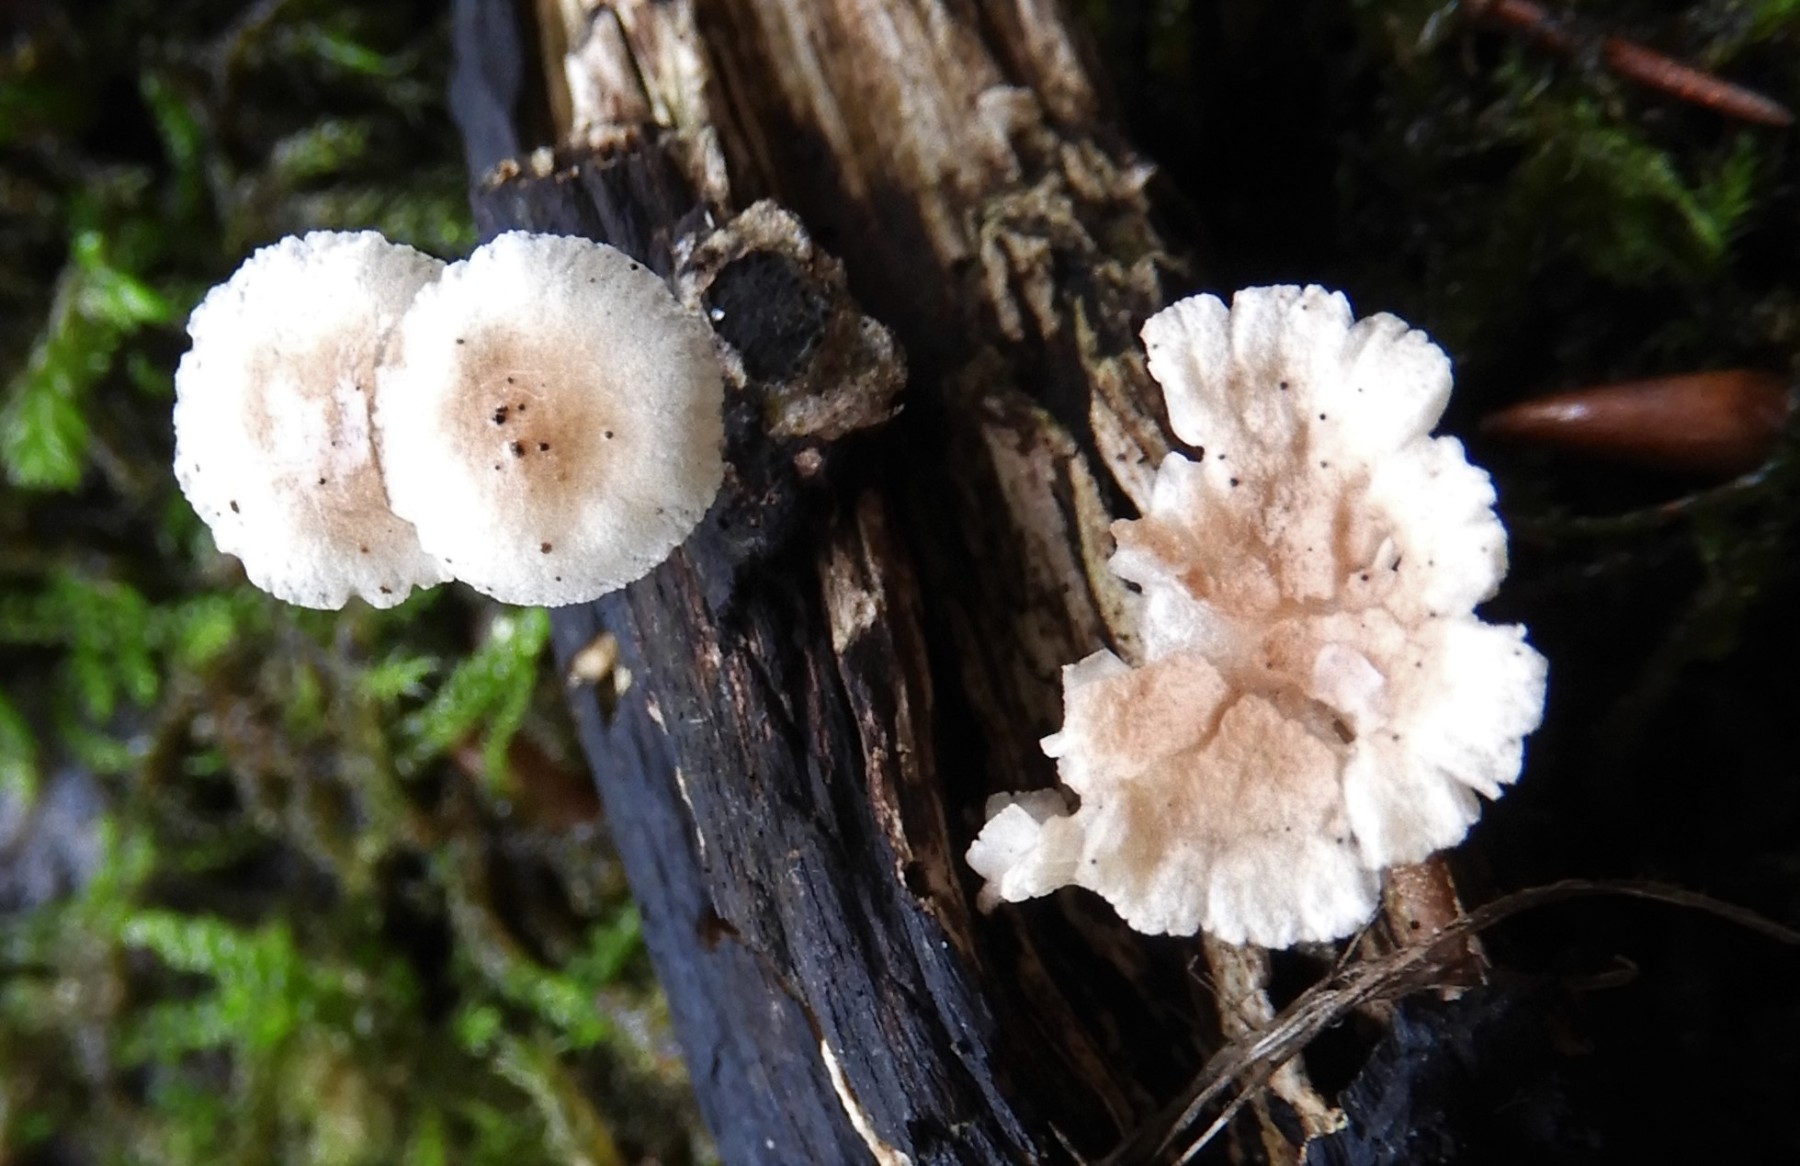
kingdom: Fungi
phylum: Basidiomycota
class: Agaricomycetes
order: Agaricales
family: Omphalotaceae
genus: Collybiopsis
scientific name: Collybiopsis ramealis
